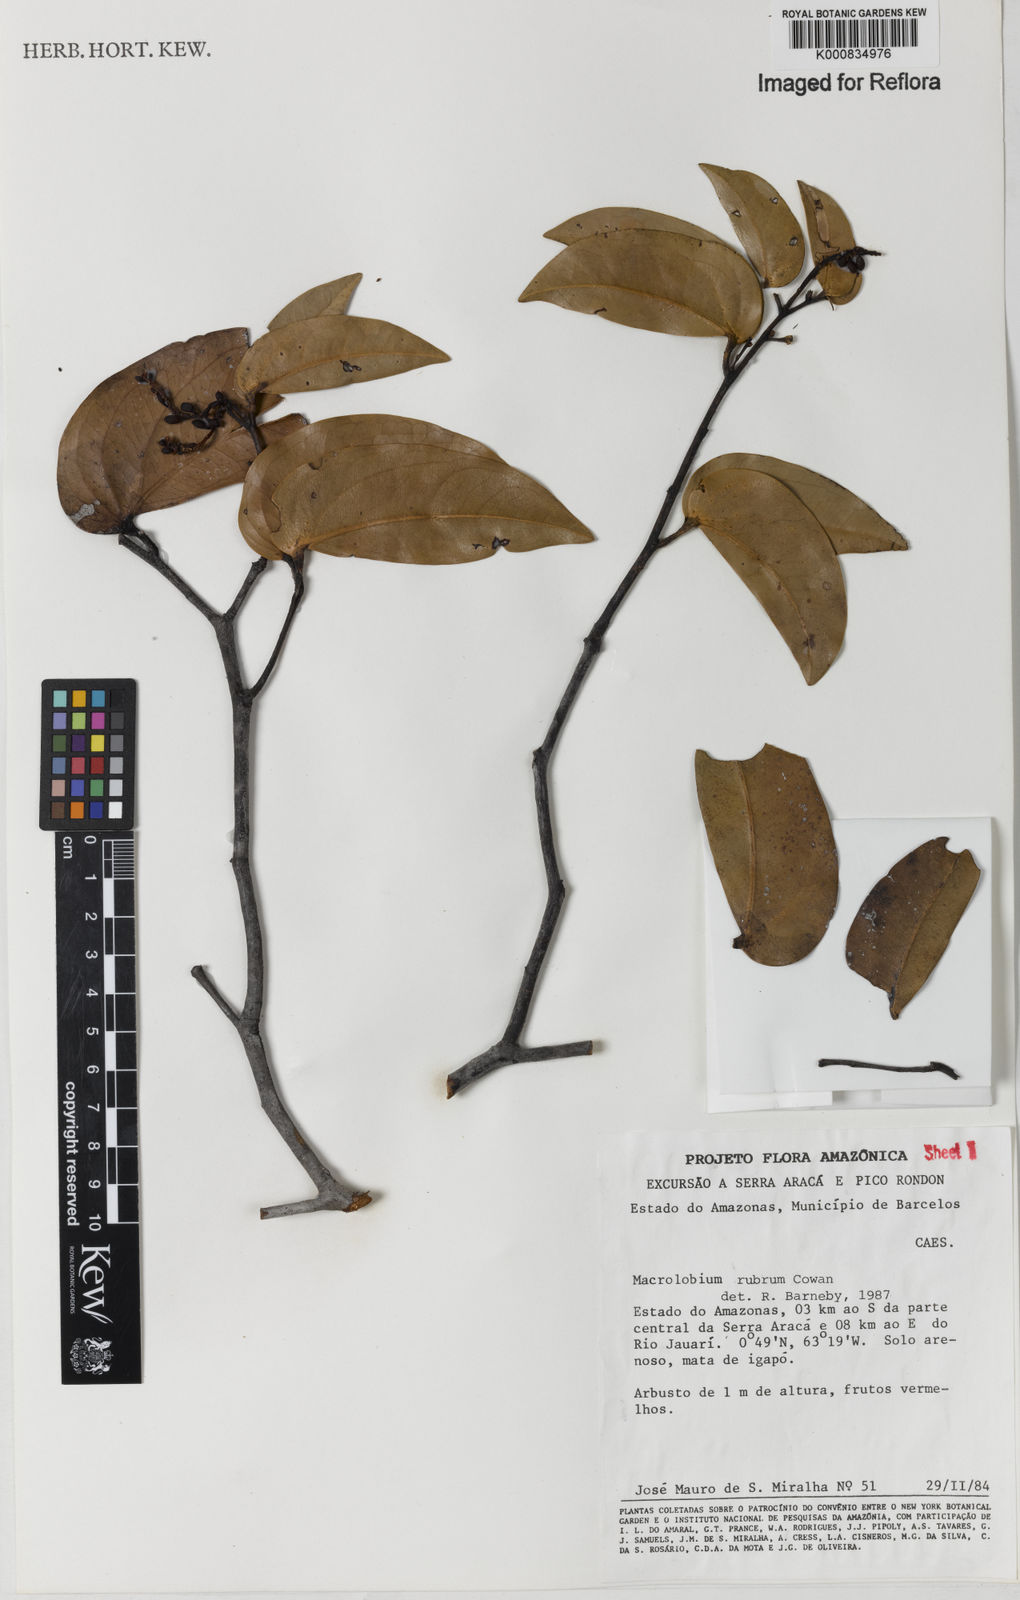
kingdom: Plantae
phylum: Tracheophyta
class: Magnoliopsida
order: Fabales
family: Fabaceae
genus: Macrolobium
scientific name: Macrolobium rubrum
